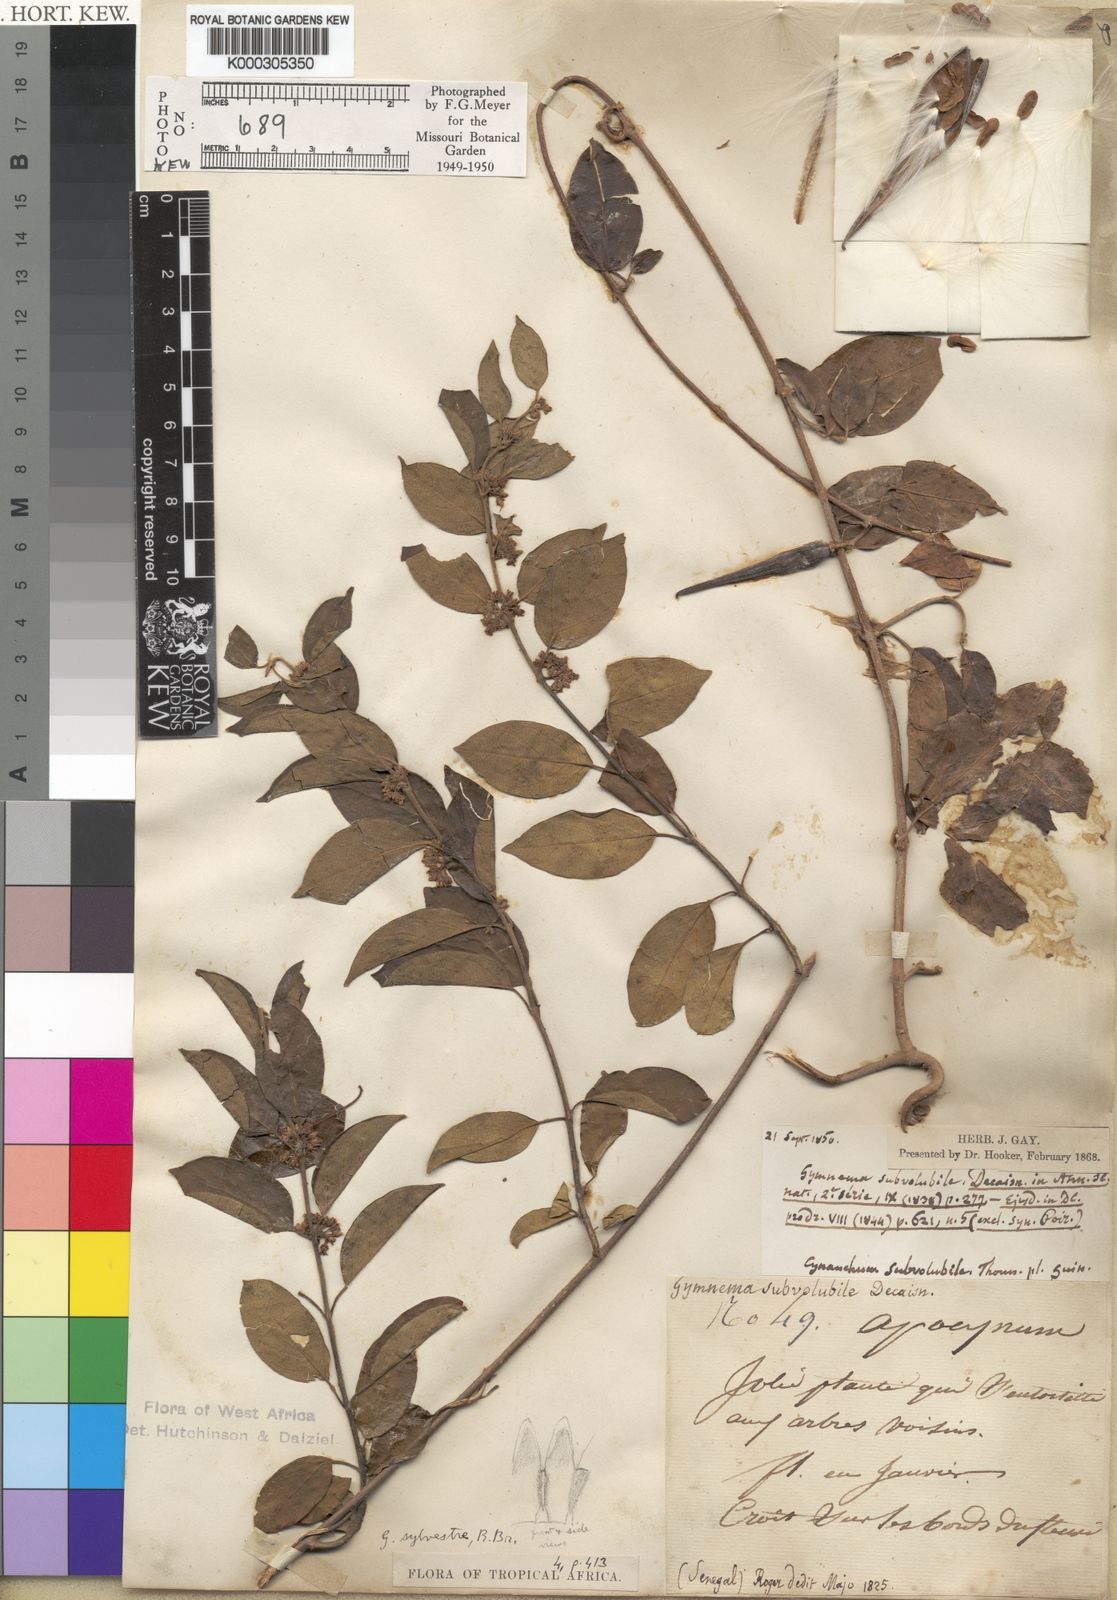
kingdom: Plantae
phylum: Tracheophyta
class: Magnoliopsida
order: Gentianales
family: Apocynaceae
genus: Gymnema
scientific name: Gymnema
